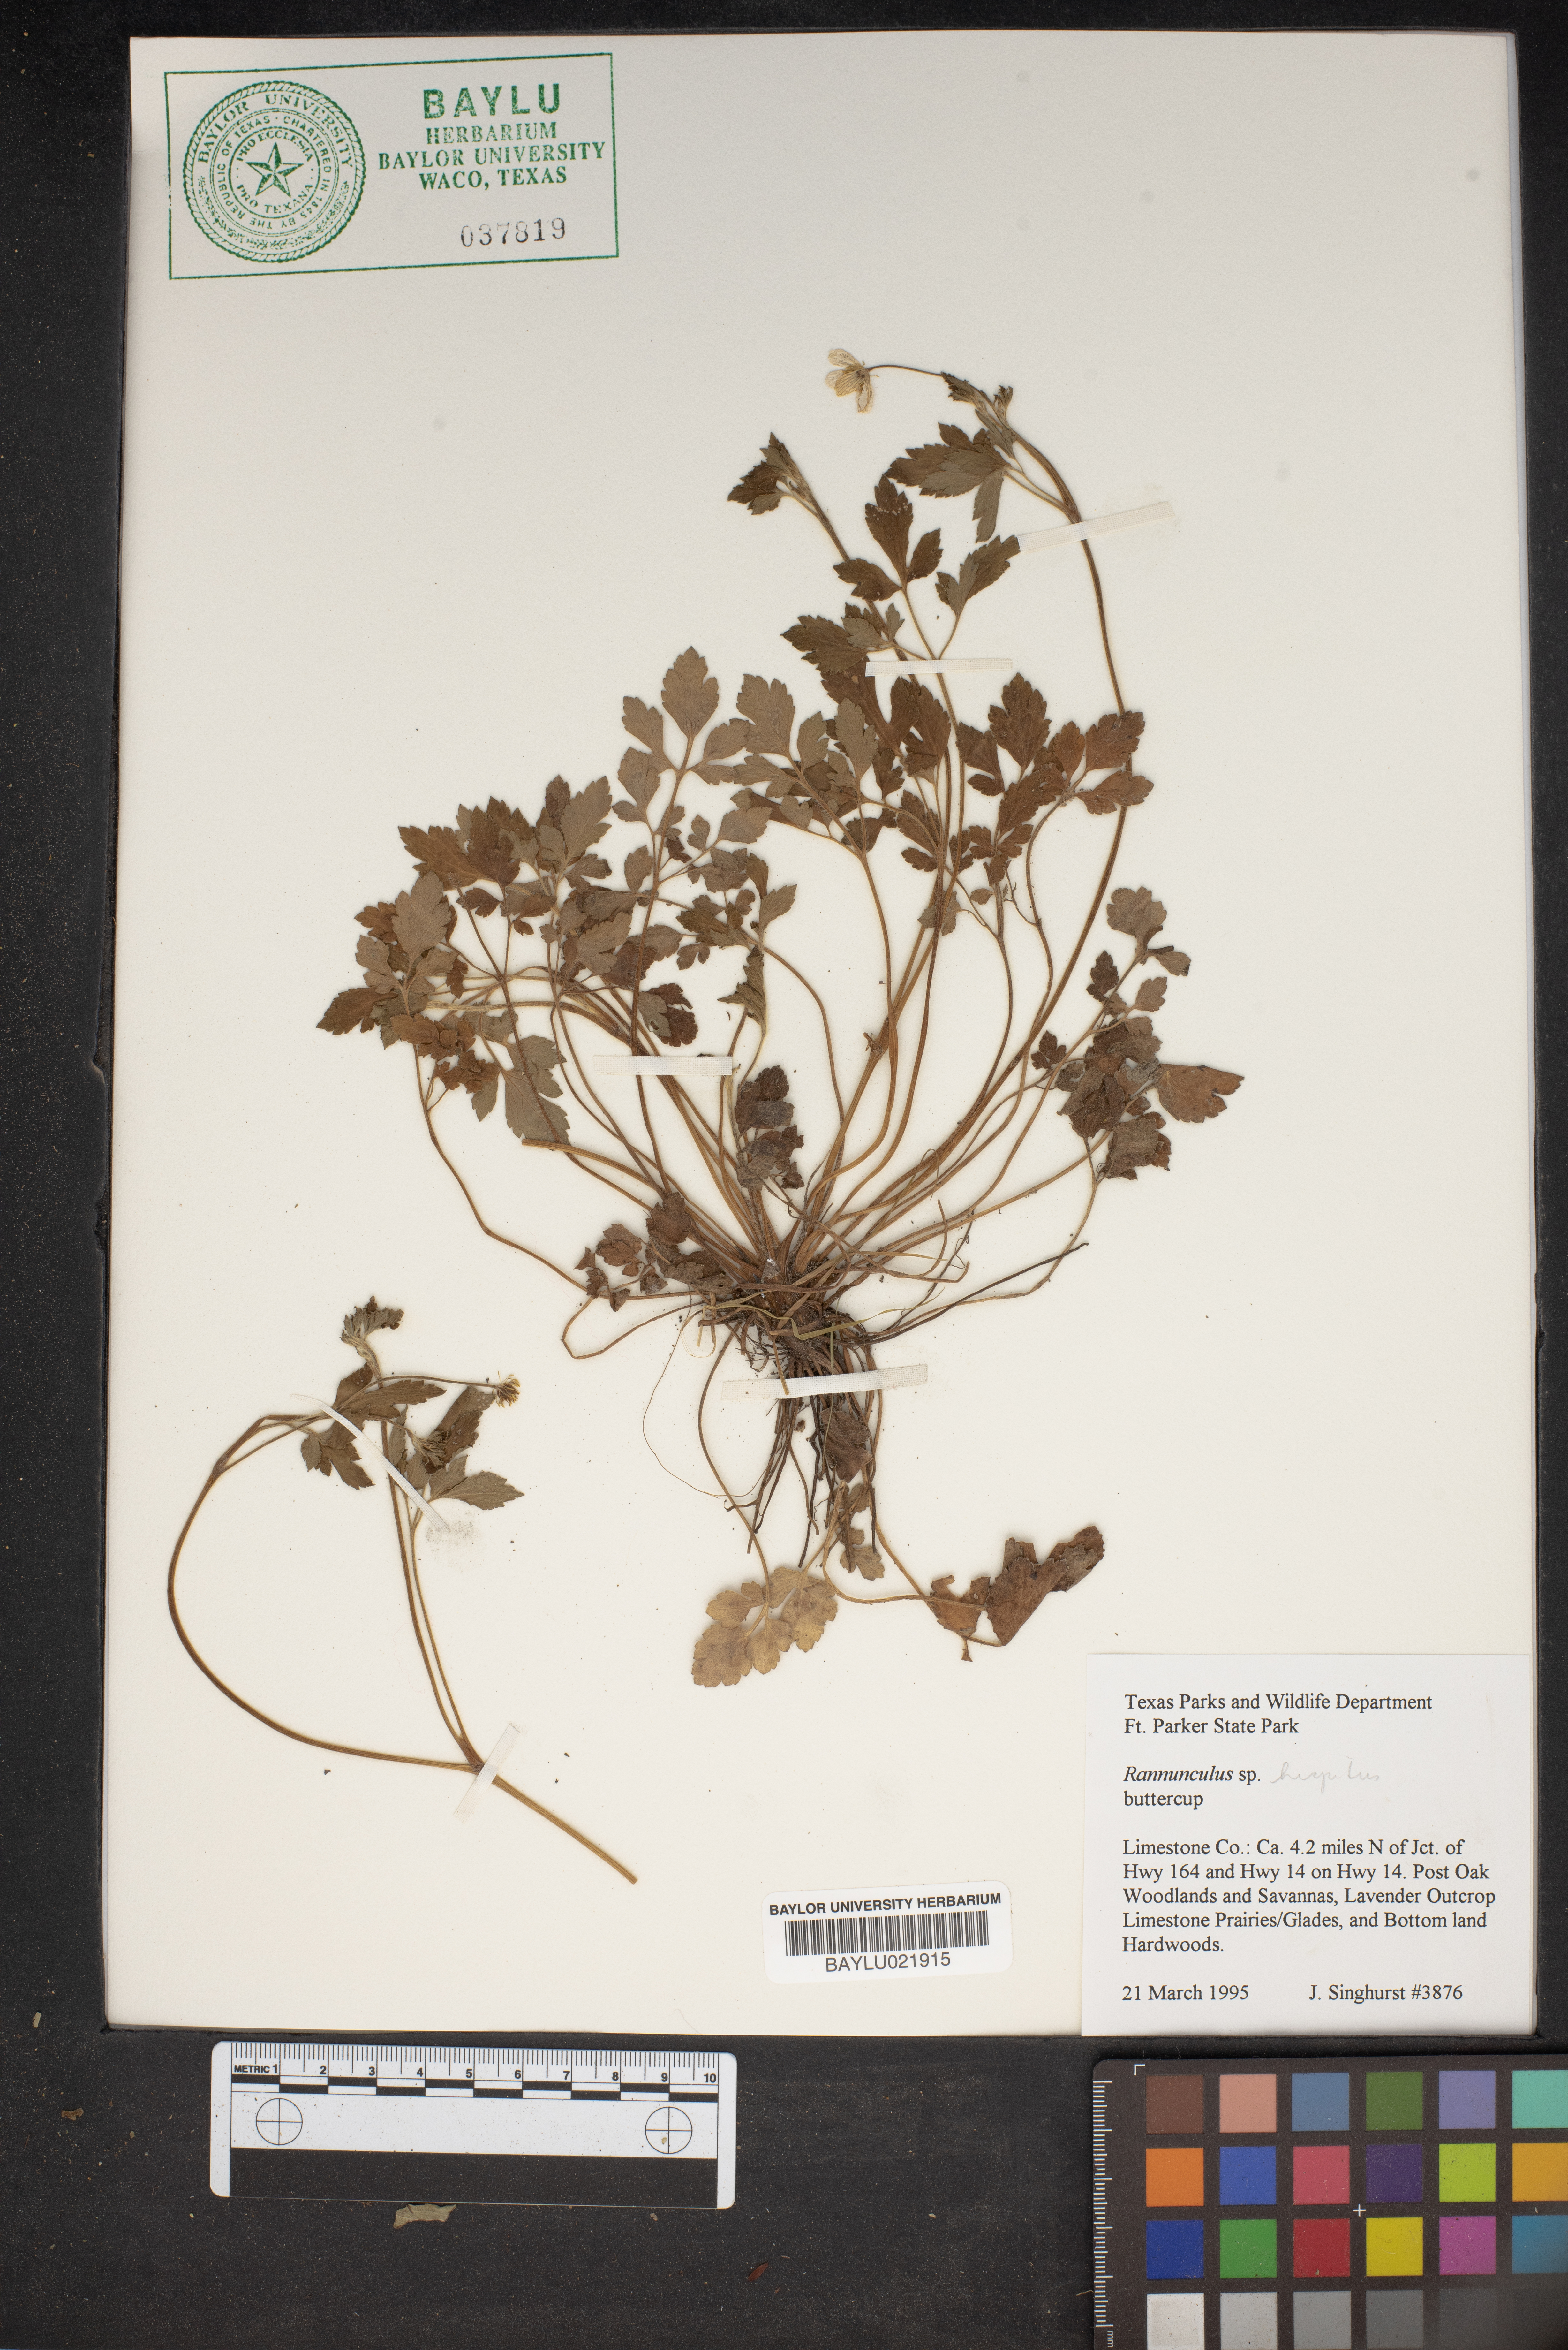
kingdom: Plantae
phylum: Tracheophyta
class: Magnoliopsida
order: Ranunculales
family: Ranunculaceae
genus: Ranunculus
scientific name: Ranunculus hispidus
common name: Bristly buttercup
